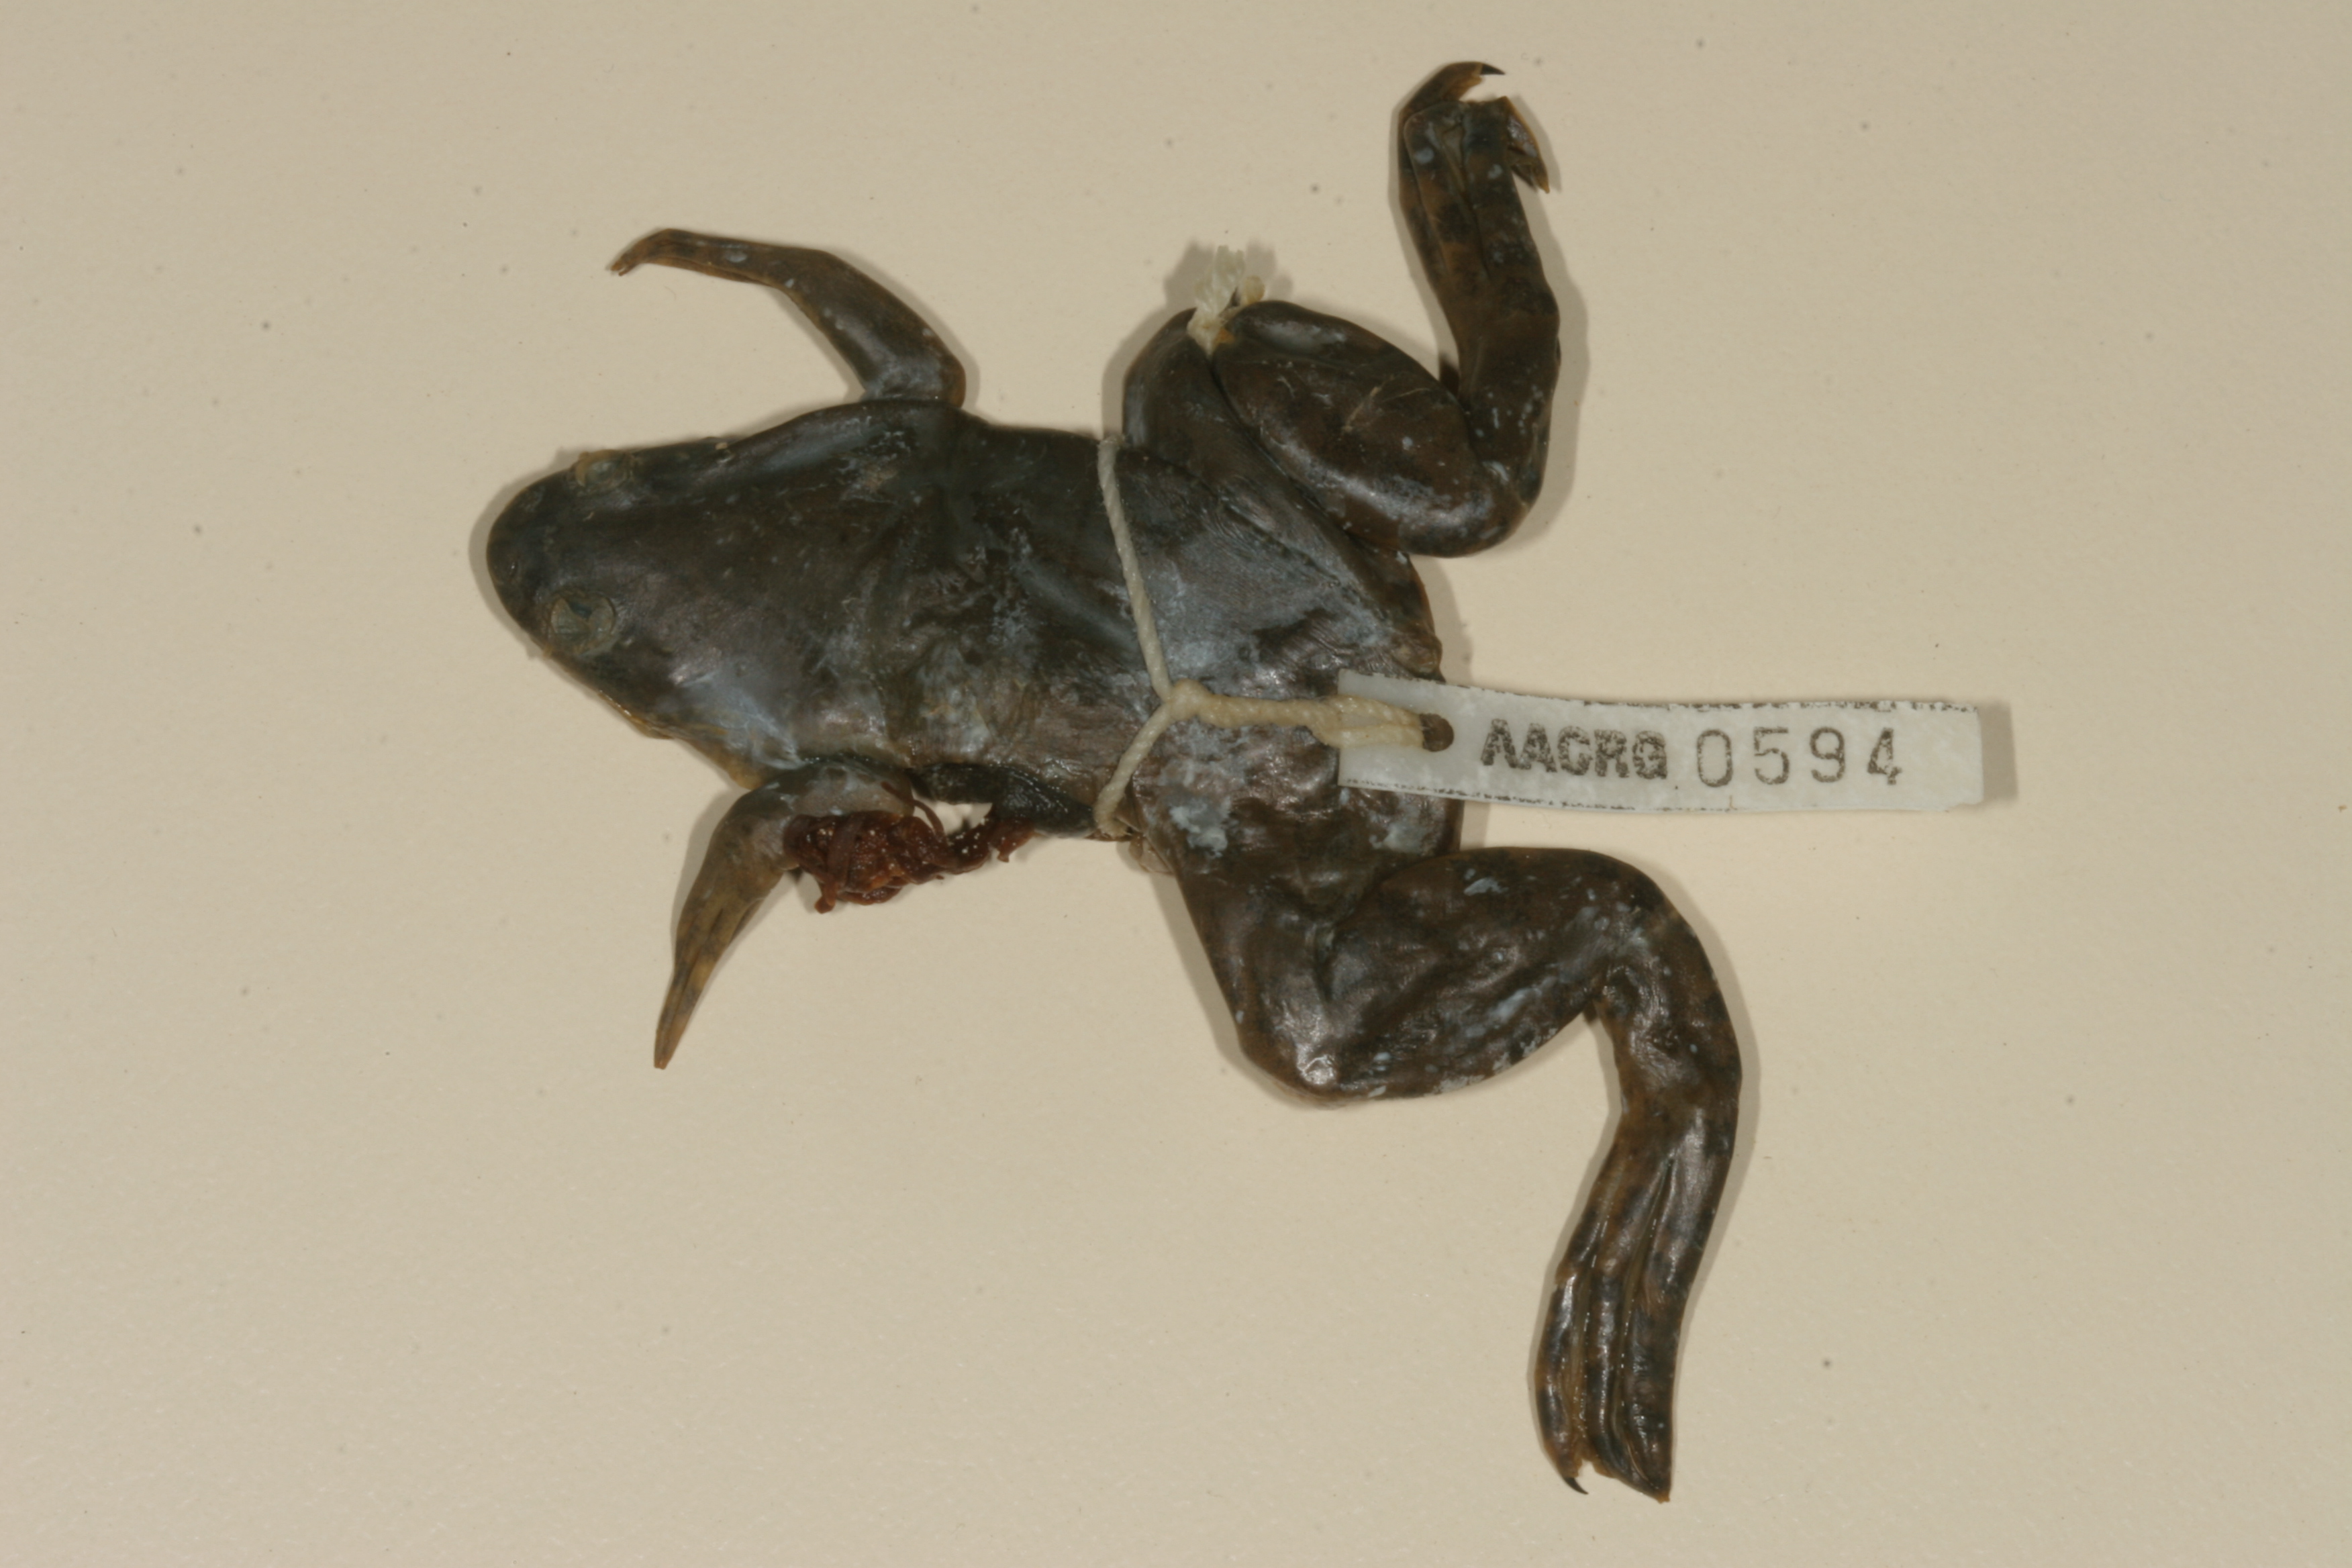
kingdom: Animalia
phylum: Chordata
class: Amphibia
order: Anura
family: Pipidae
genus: Xenopus
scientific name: Xenopus muelleri
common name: Muller's clawed frog
